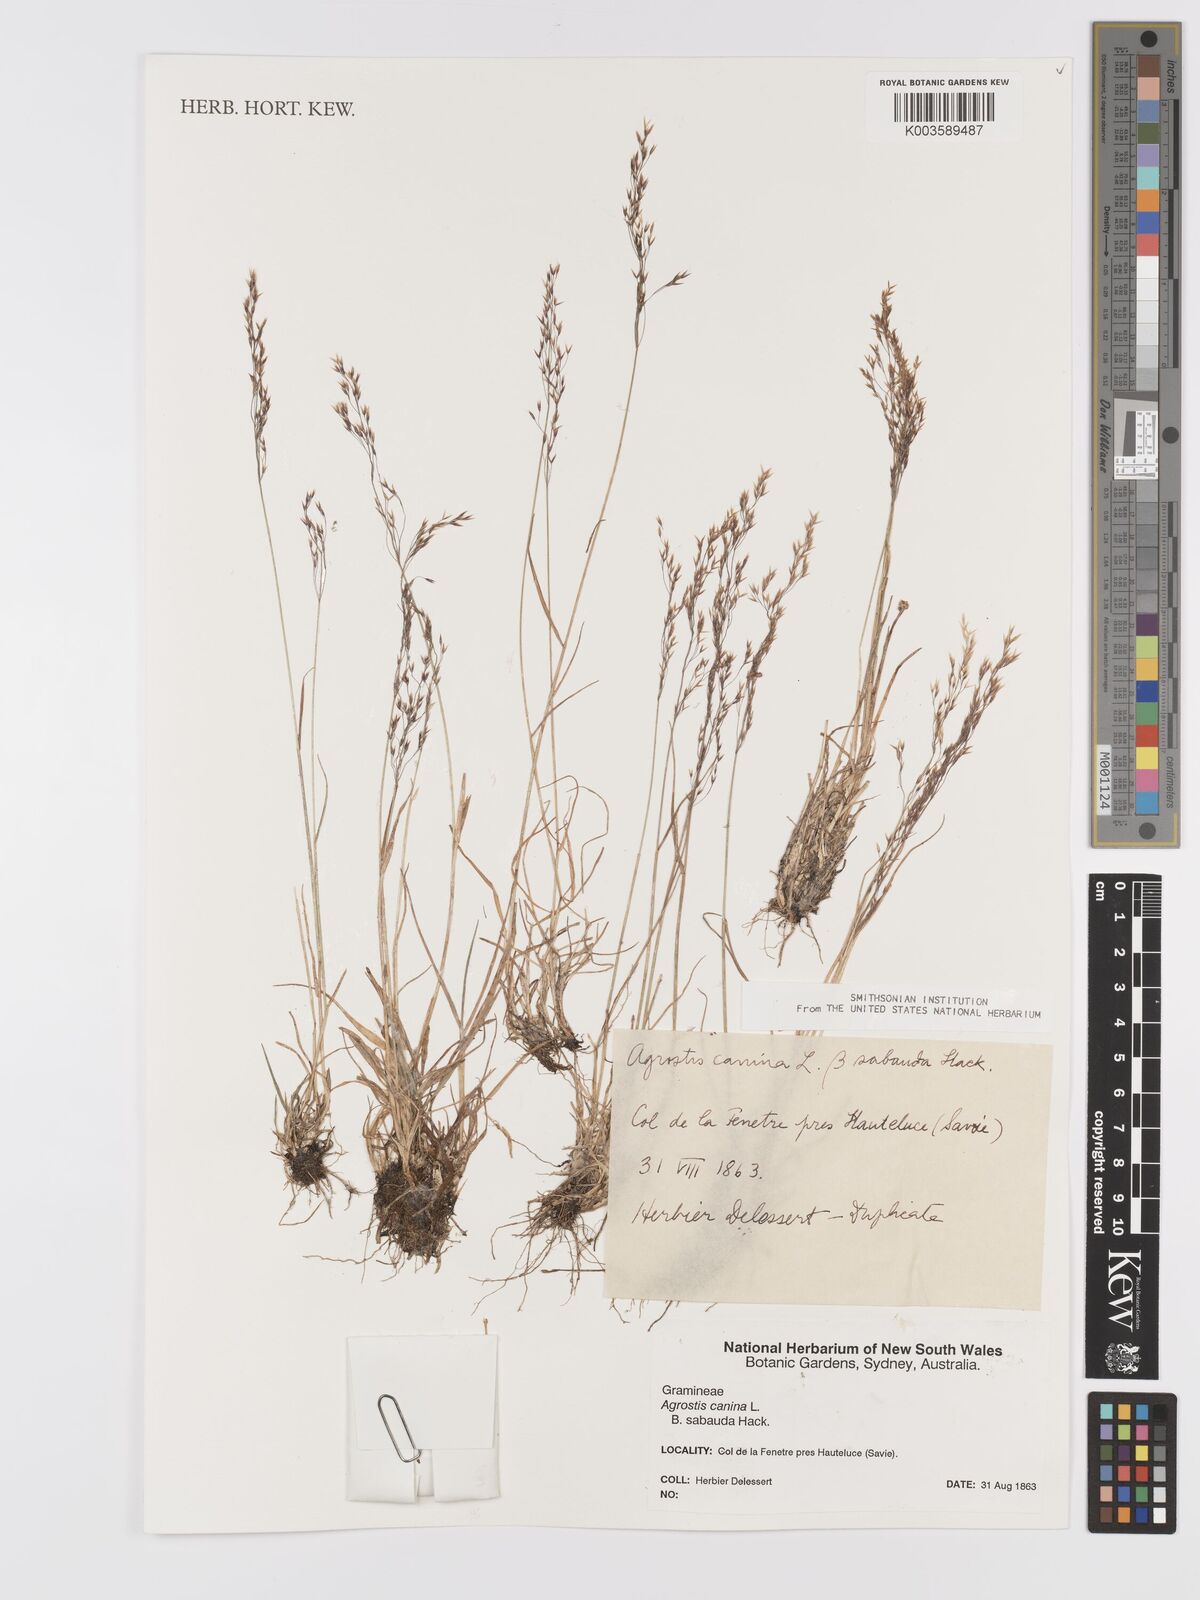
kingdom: Plantae
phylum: Tracheophyta
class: Liliopsida
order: Poales
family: Poaceae
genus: Agrostis
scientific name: Agrostis canina
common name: Velvet bent
